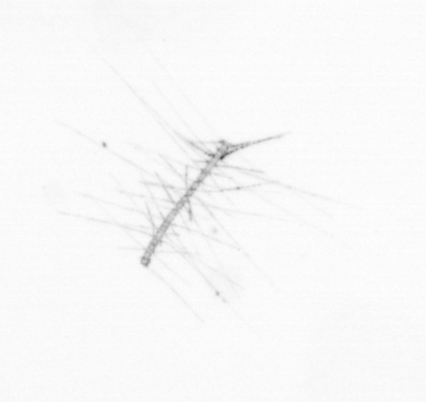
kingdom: Chromista
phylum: Ochrophyta
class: Bacillariophyceae
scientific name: Bacillariophyceae
